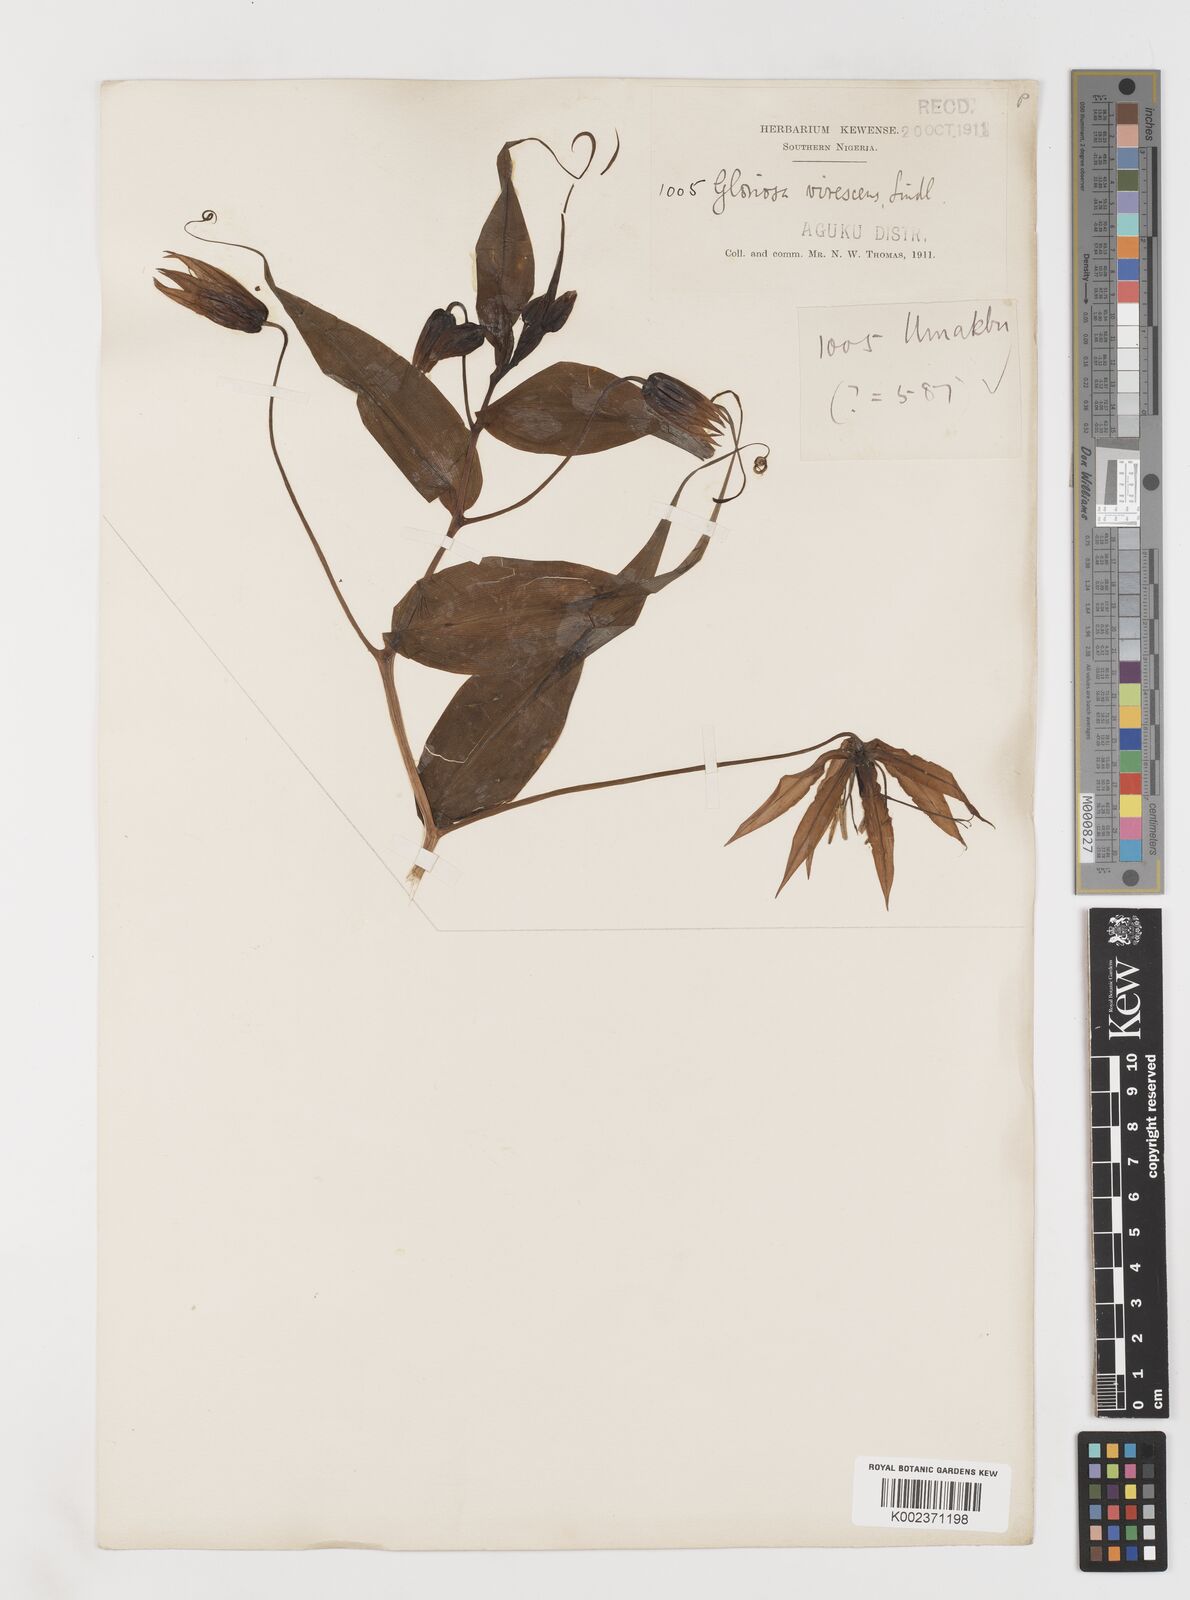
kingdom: Plantae
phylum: Tracheophyta
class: Liliopsida
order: Liliales
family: Colchicaceae
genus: Gloriosa
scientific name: Gloriosa simplex
